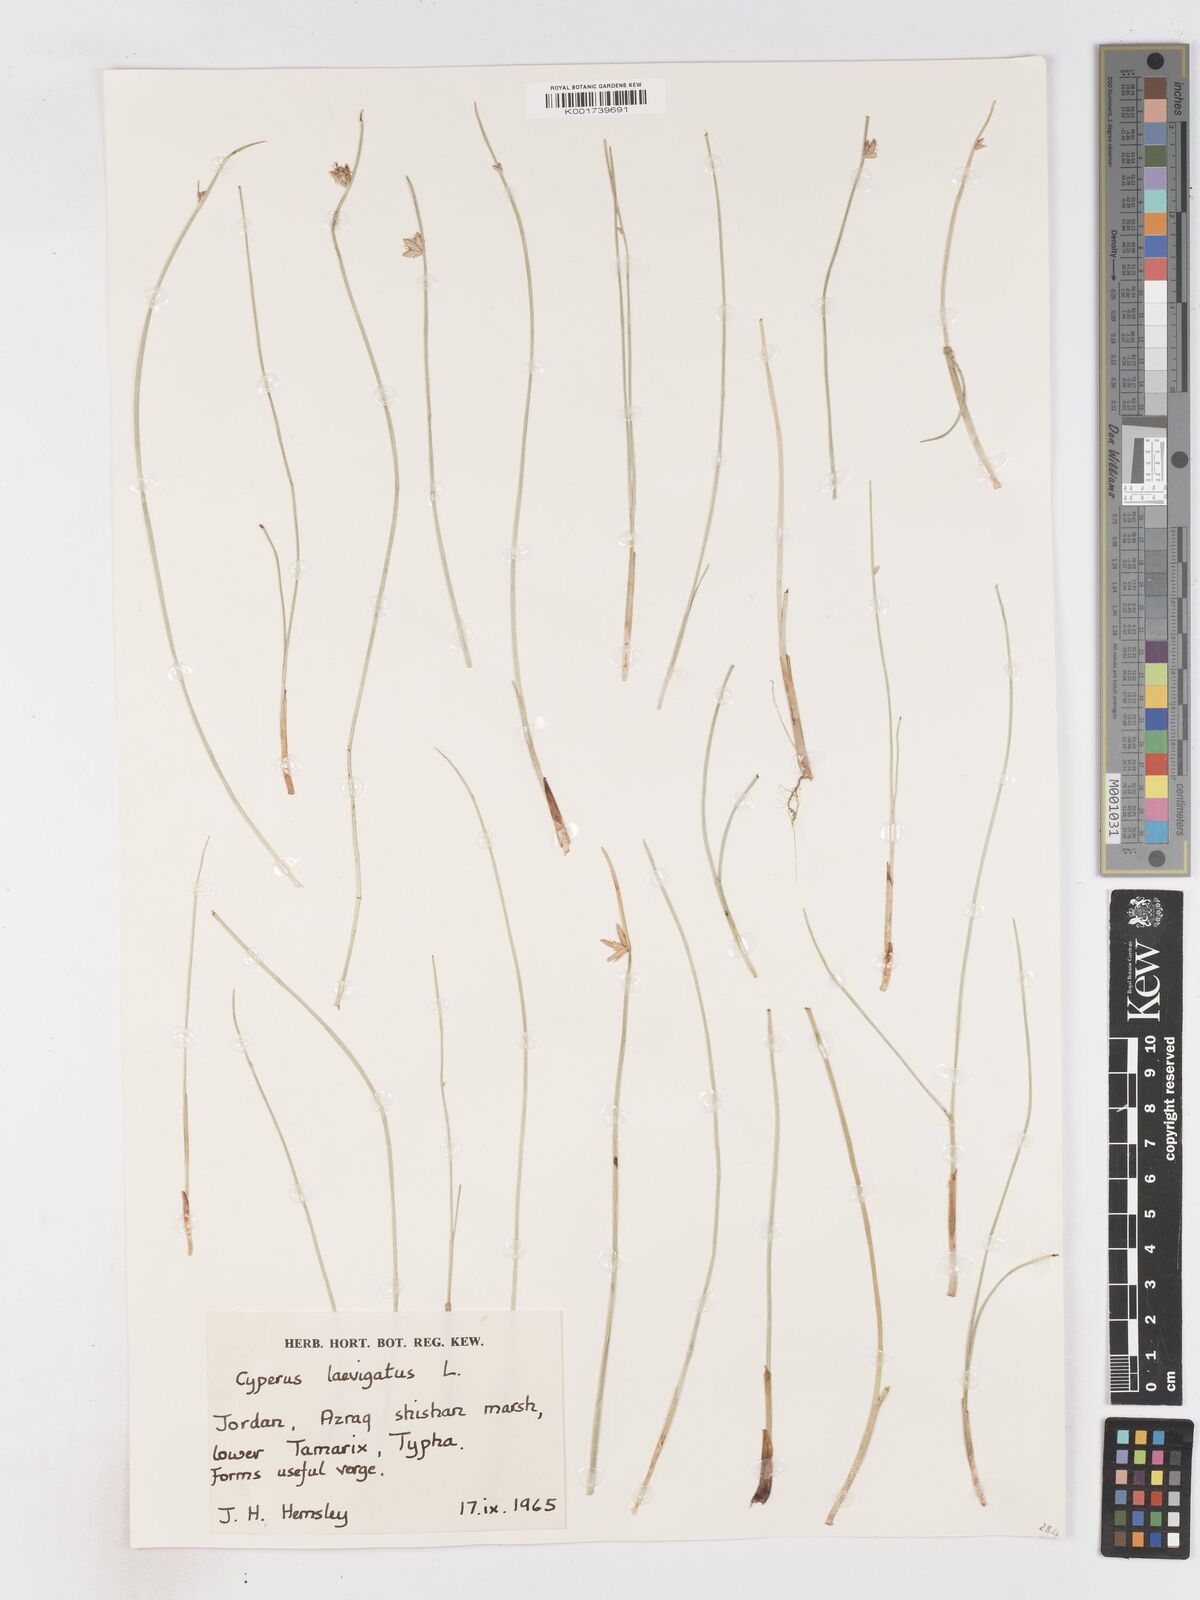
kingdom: Plantae
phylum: Tracheophyta
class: Liliopsida
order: Poales
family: Cyperaceae
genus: Cyperus
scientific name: Cyperus laevigatus
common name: Smooth flat sedge
